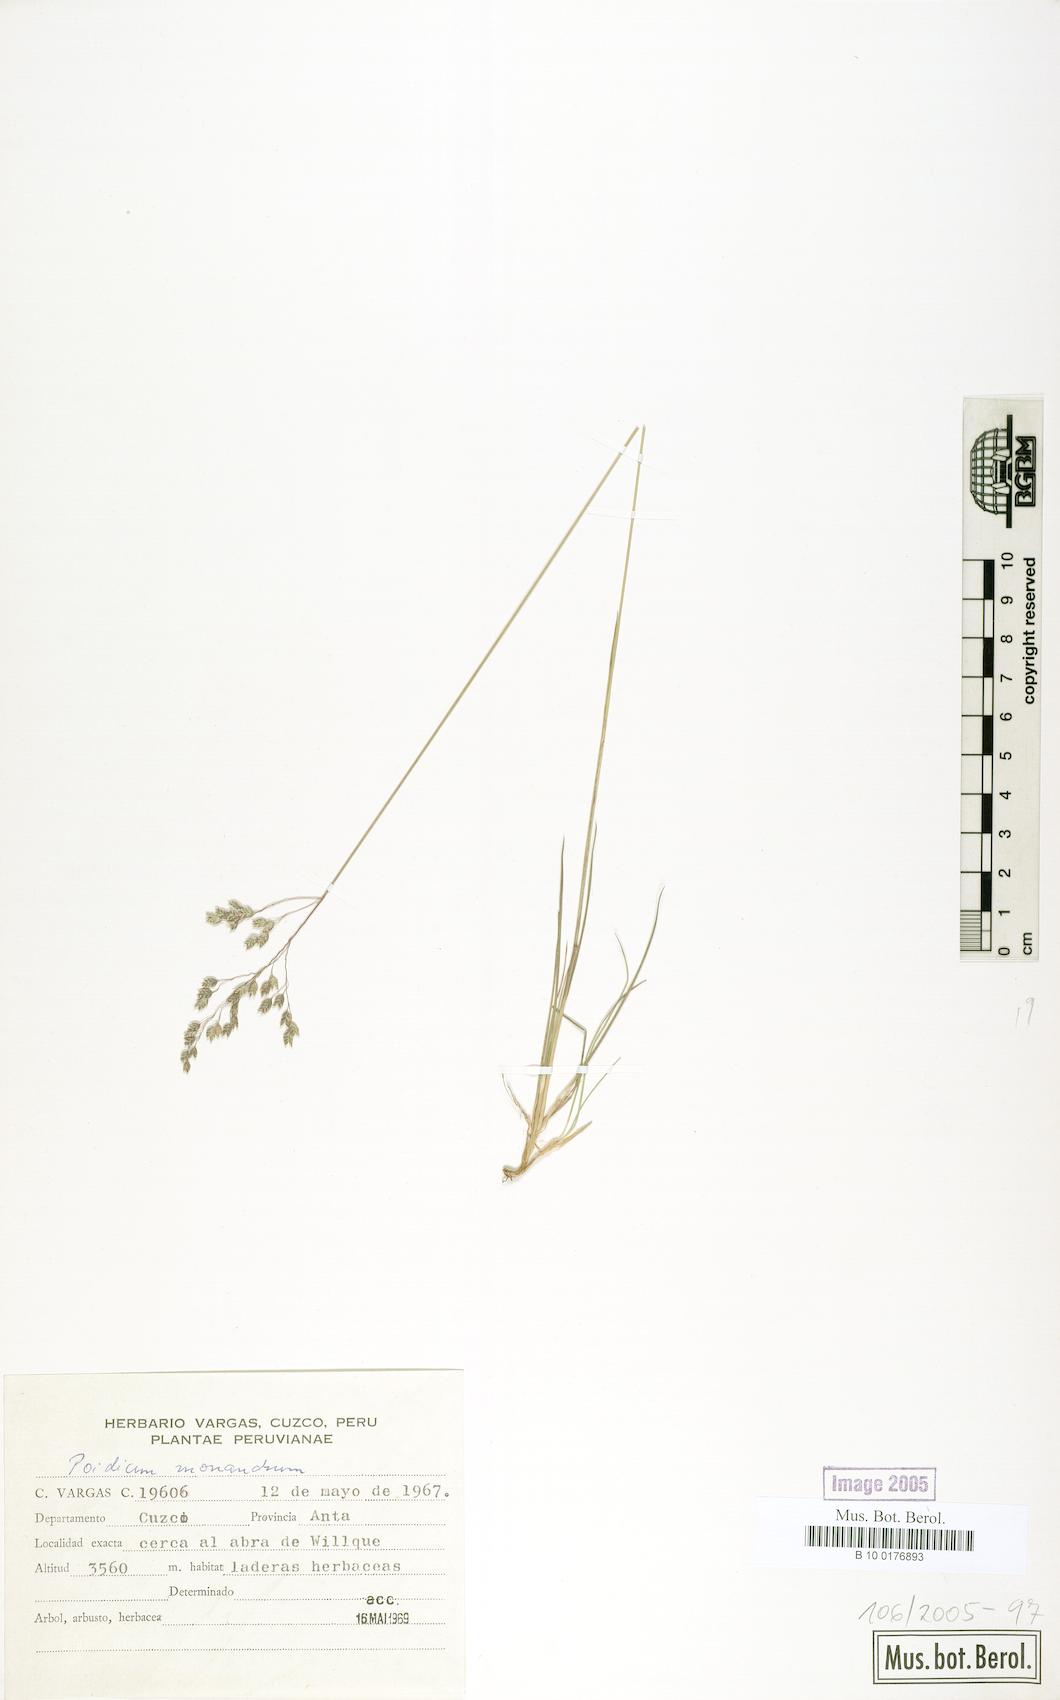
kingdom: Plantae
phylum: Tracheophyta
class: Liliopsida
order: Poales
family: Poaceae
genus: Poidium
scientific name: Poidium monandrum
